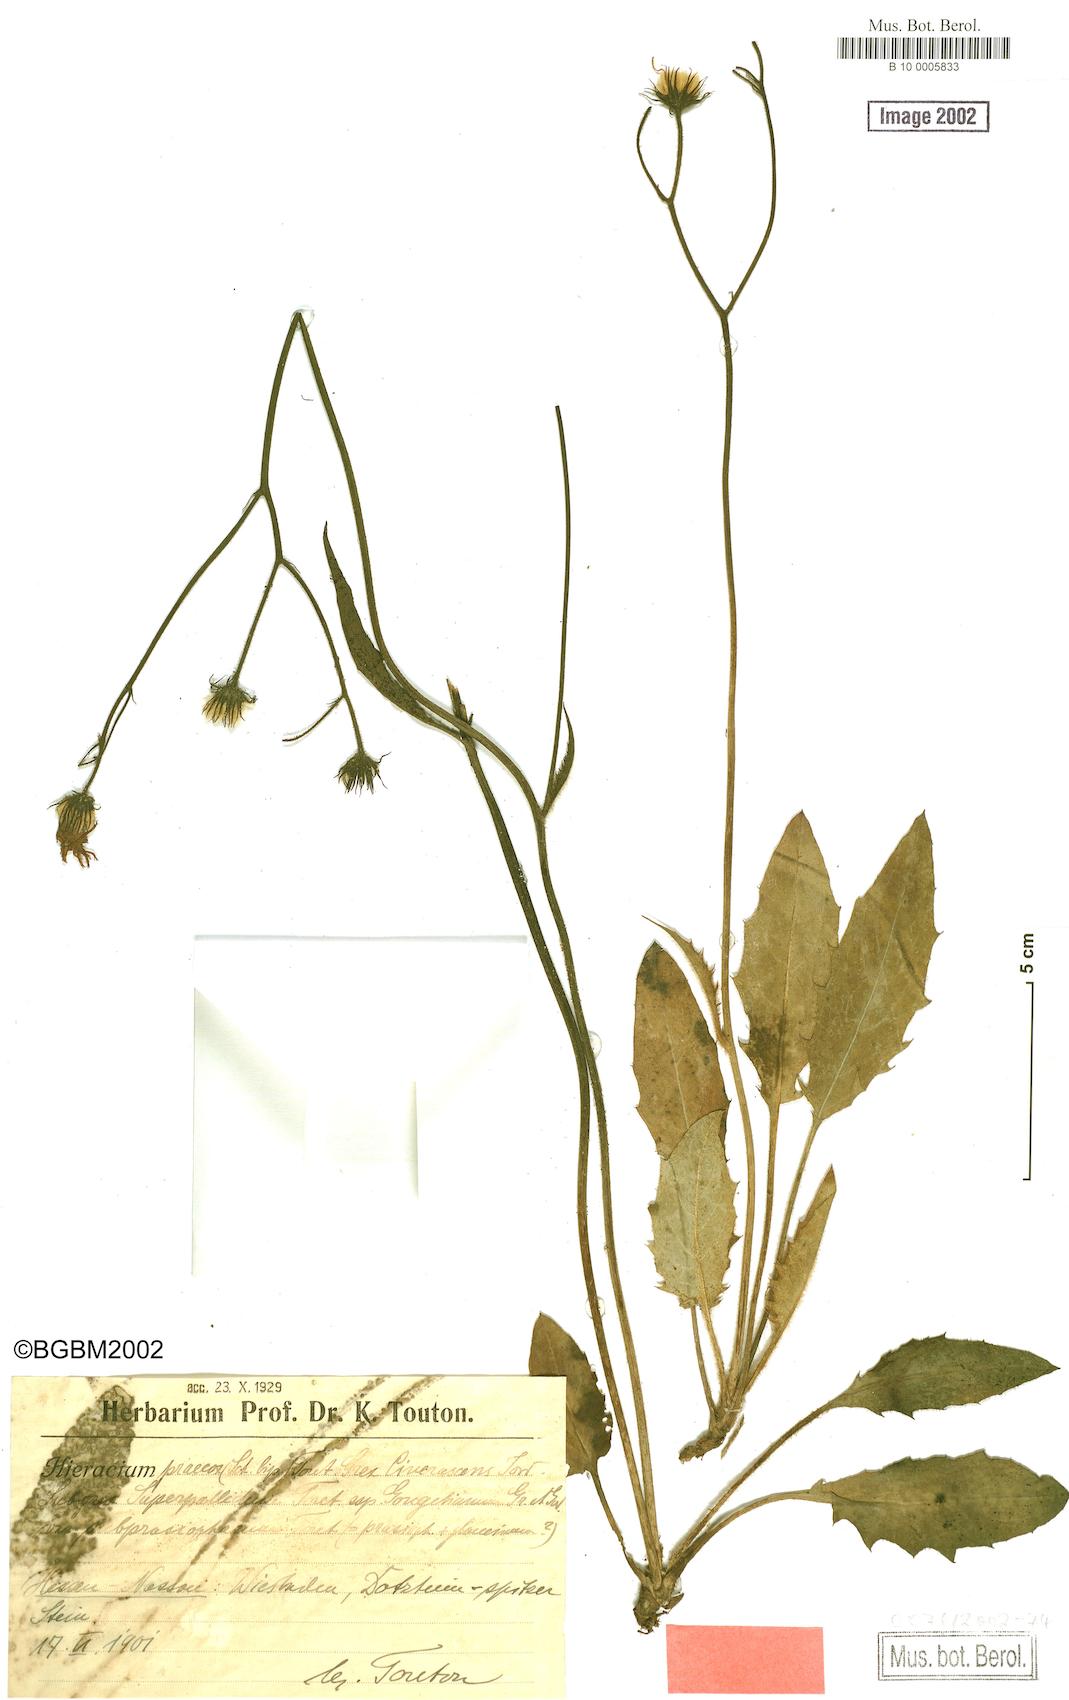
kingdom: Plantae
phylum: Tracheophyta
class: Magnoliopsida
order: Asterales
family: Asteraceae
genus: Hieracium
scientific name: Hieracium praecox
